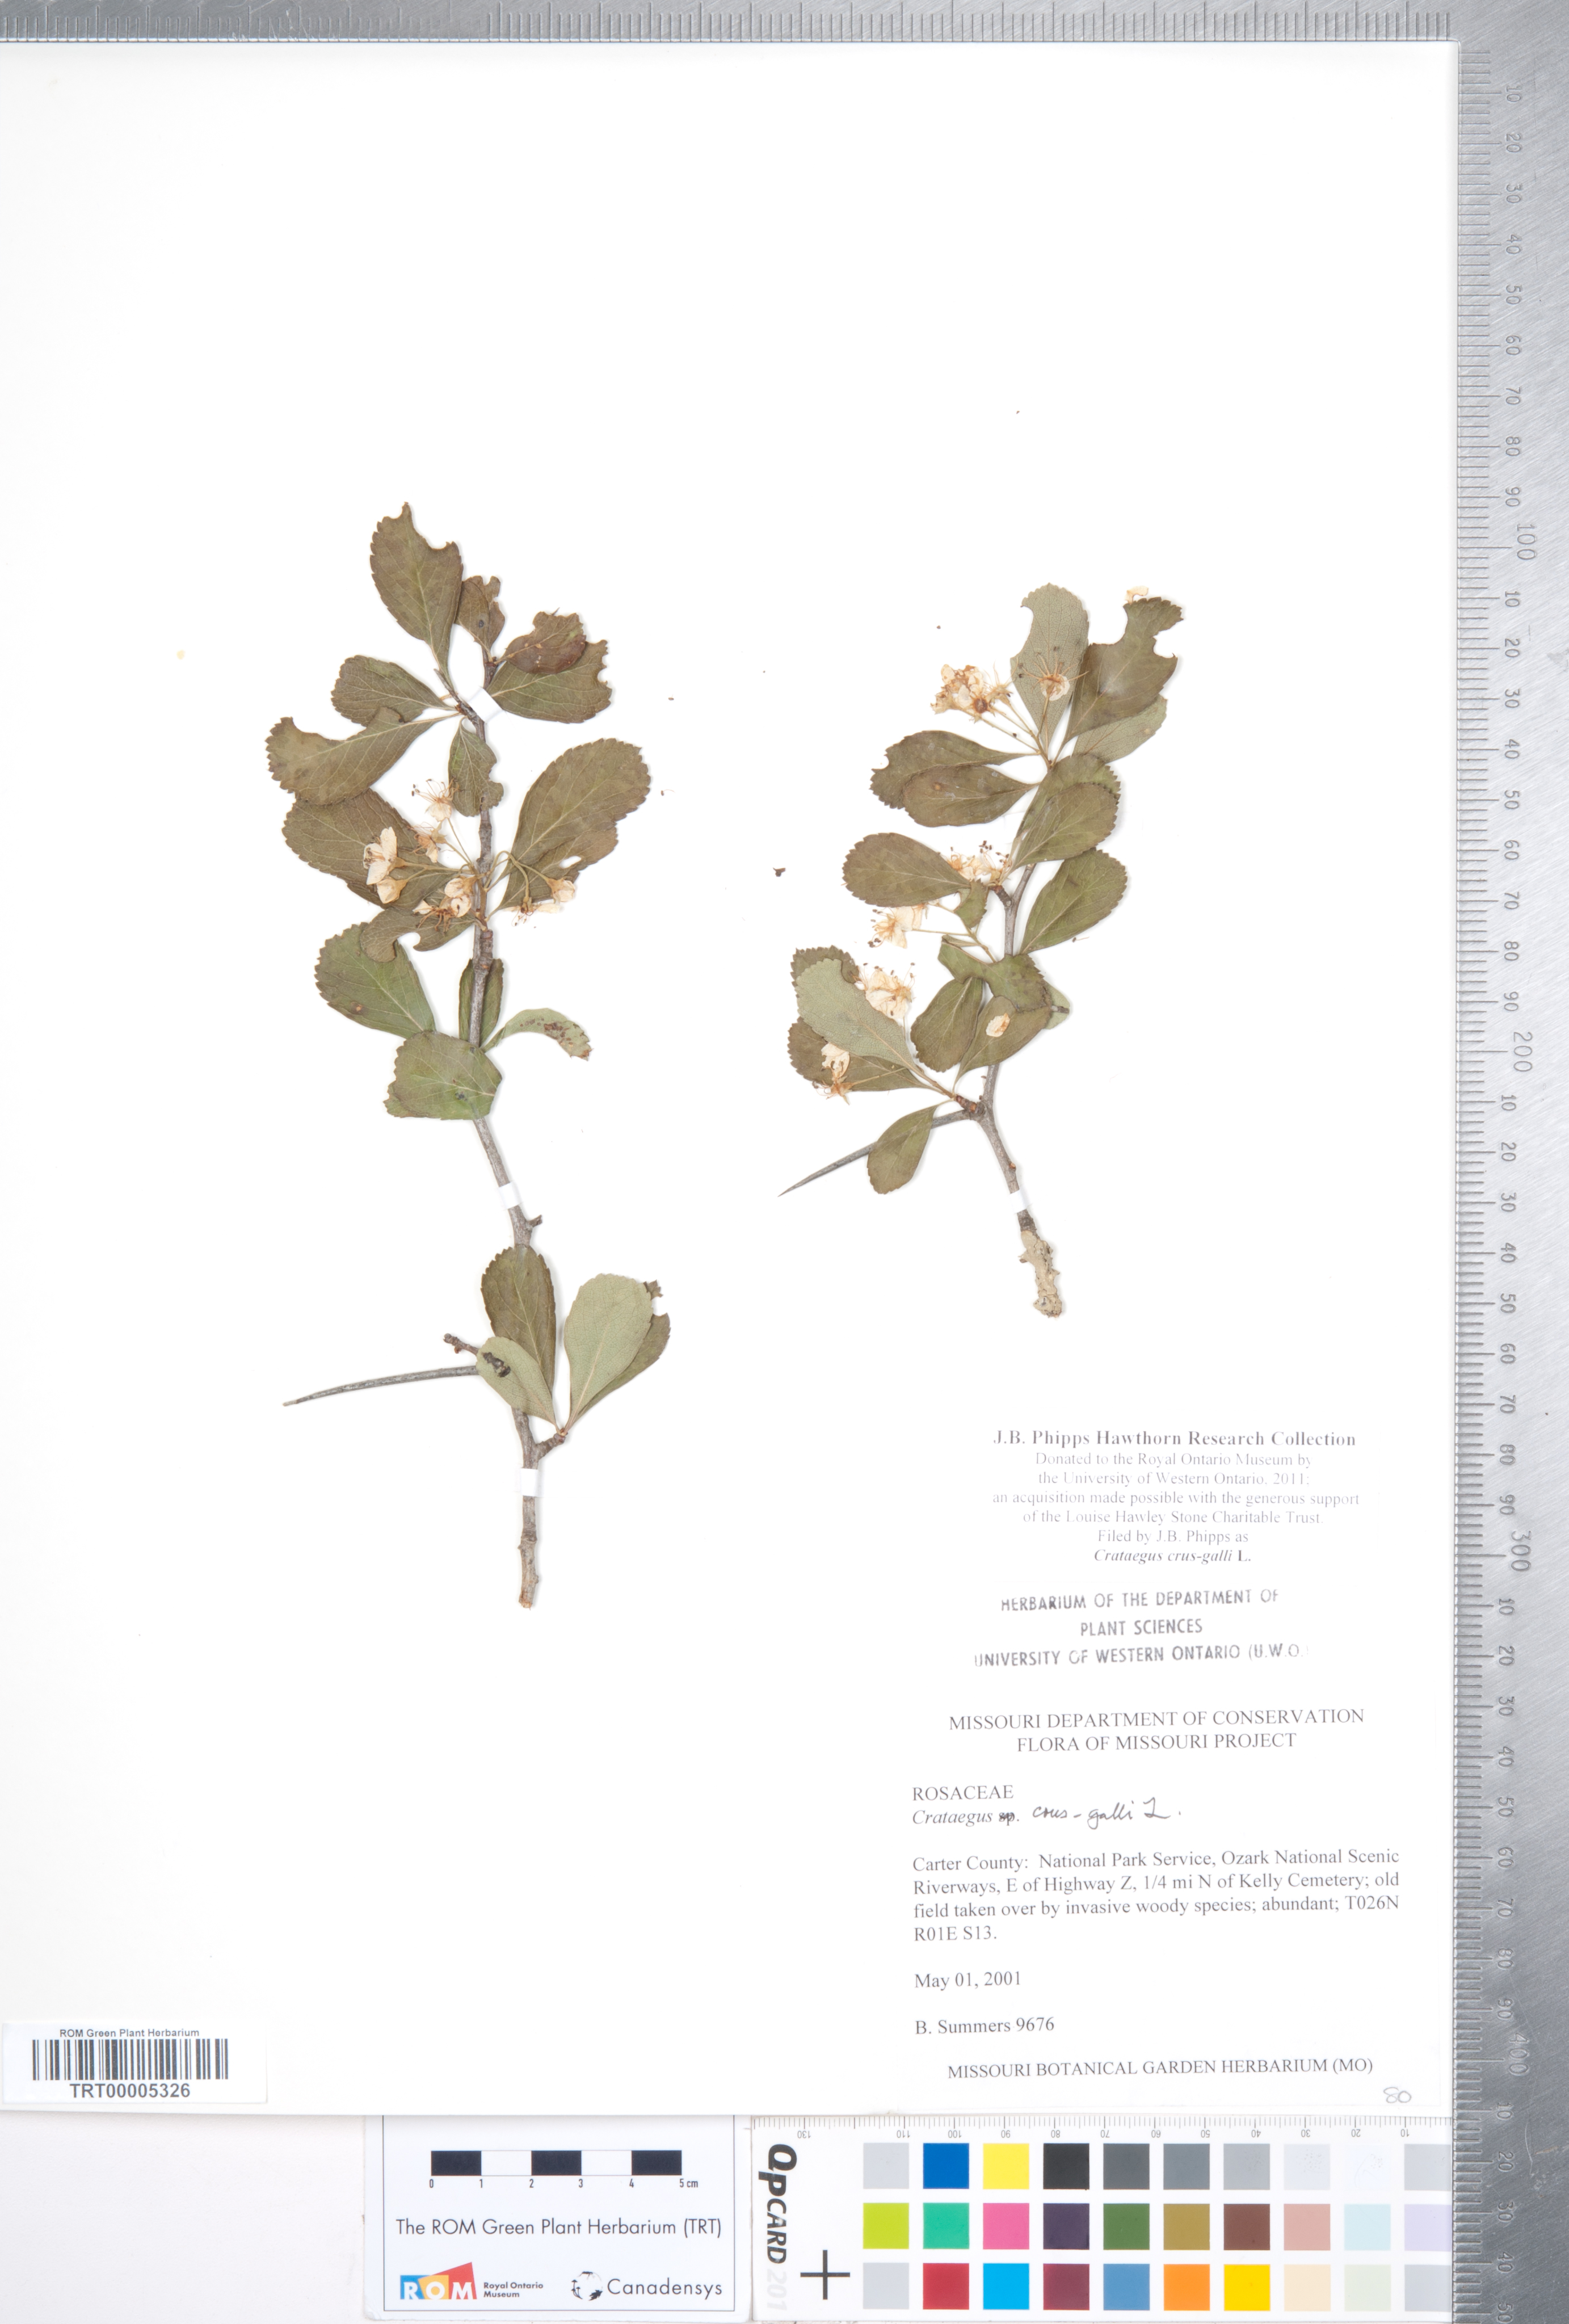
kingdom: Plantae
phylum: Tracheophyta
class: Magnoliopsida
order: Rosales
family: Rosaceae
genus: Crataegus
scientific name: Crataegus crus-galli
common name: Cockspurthorn
